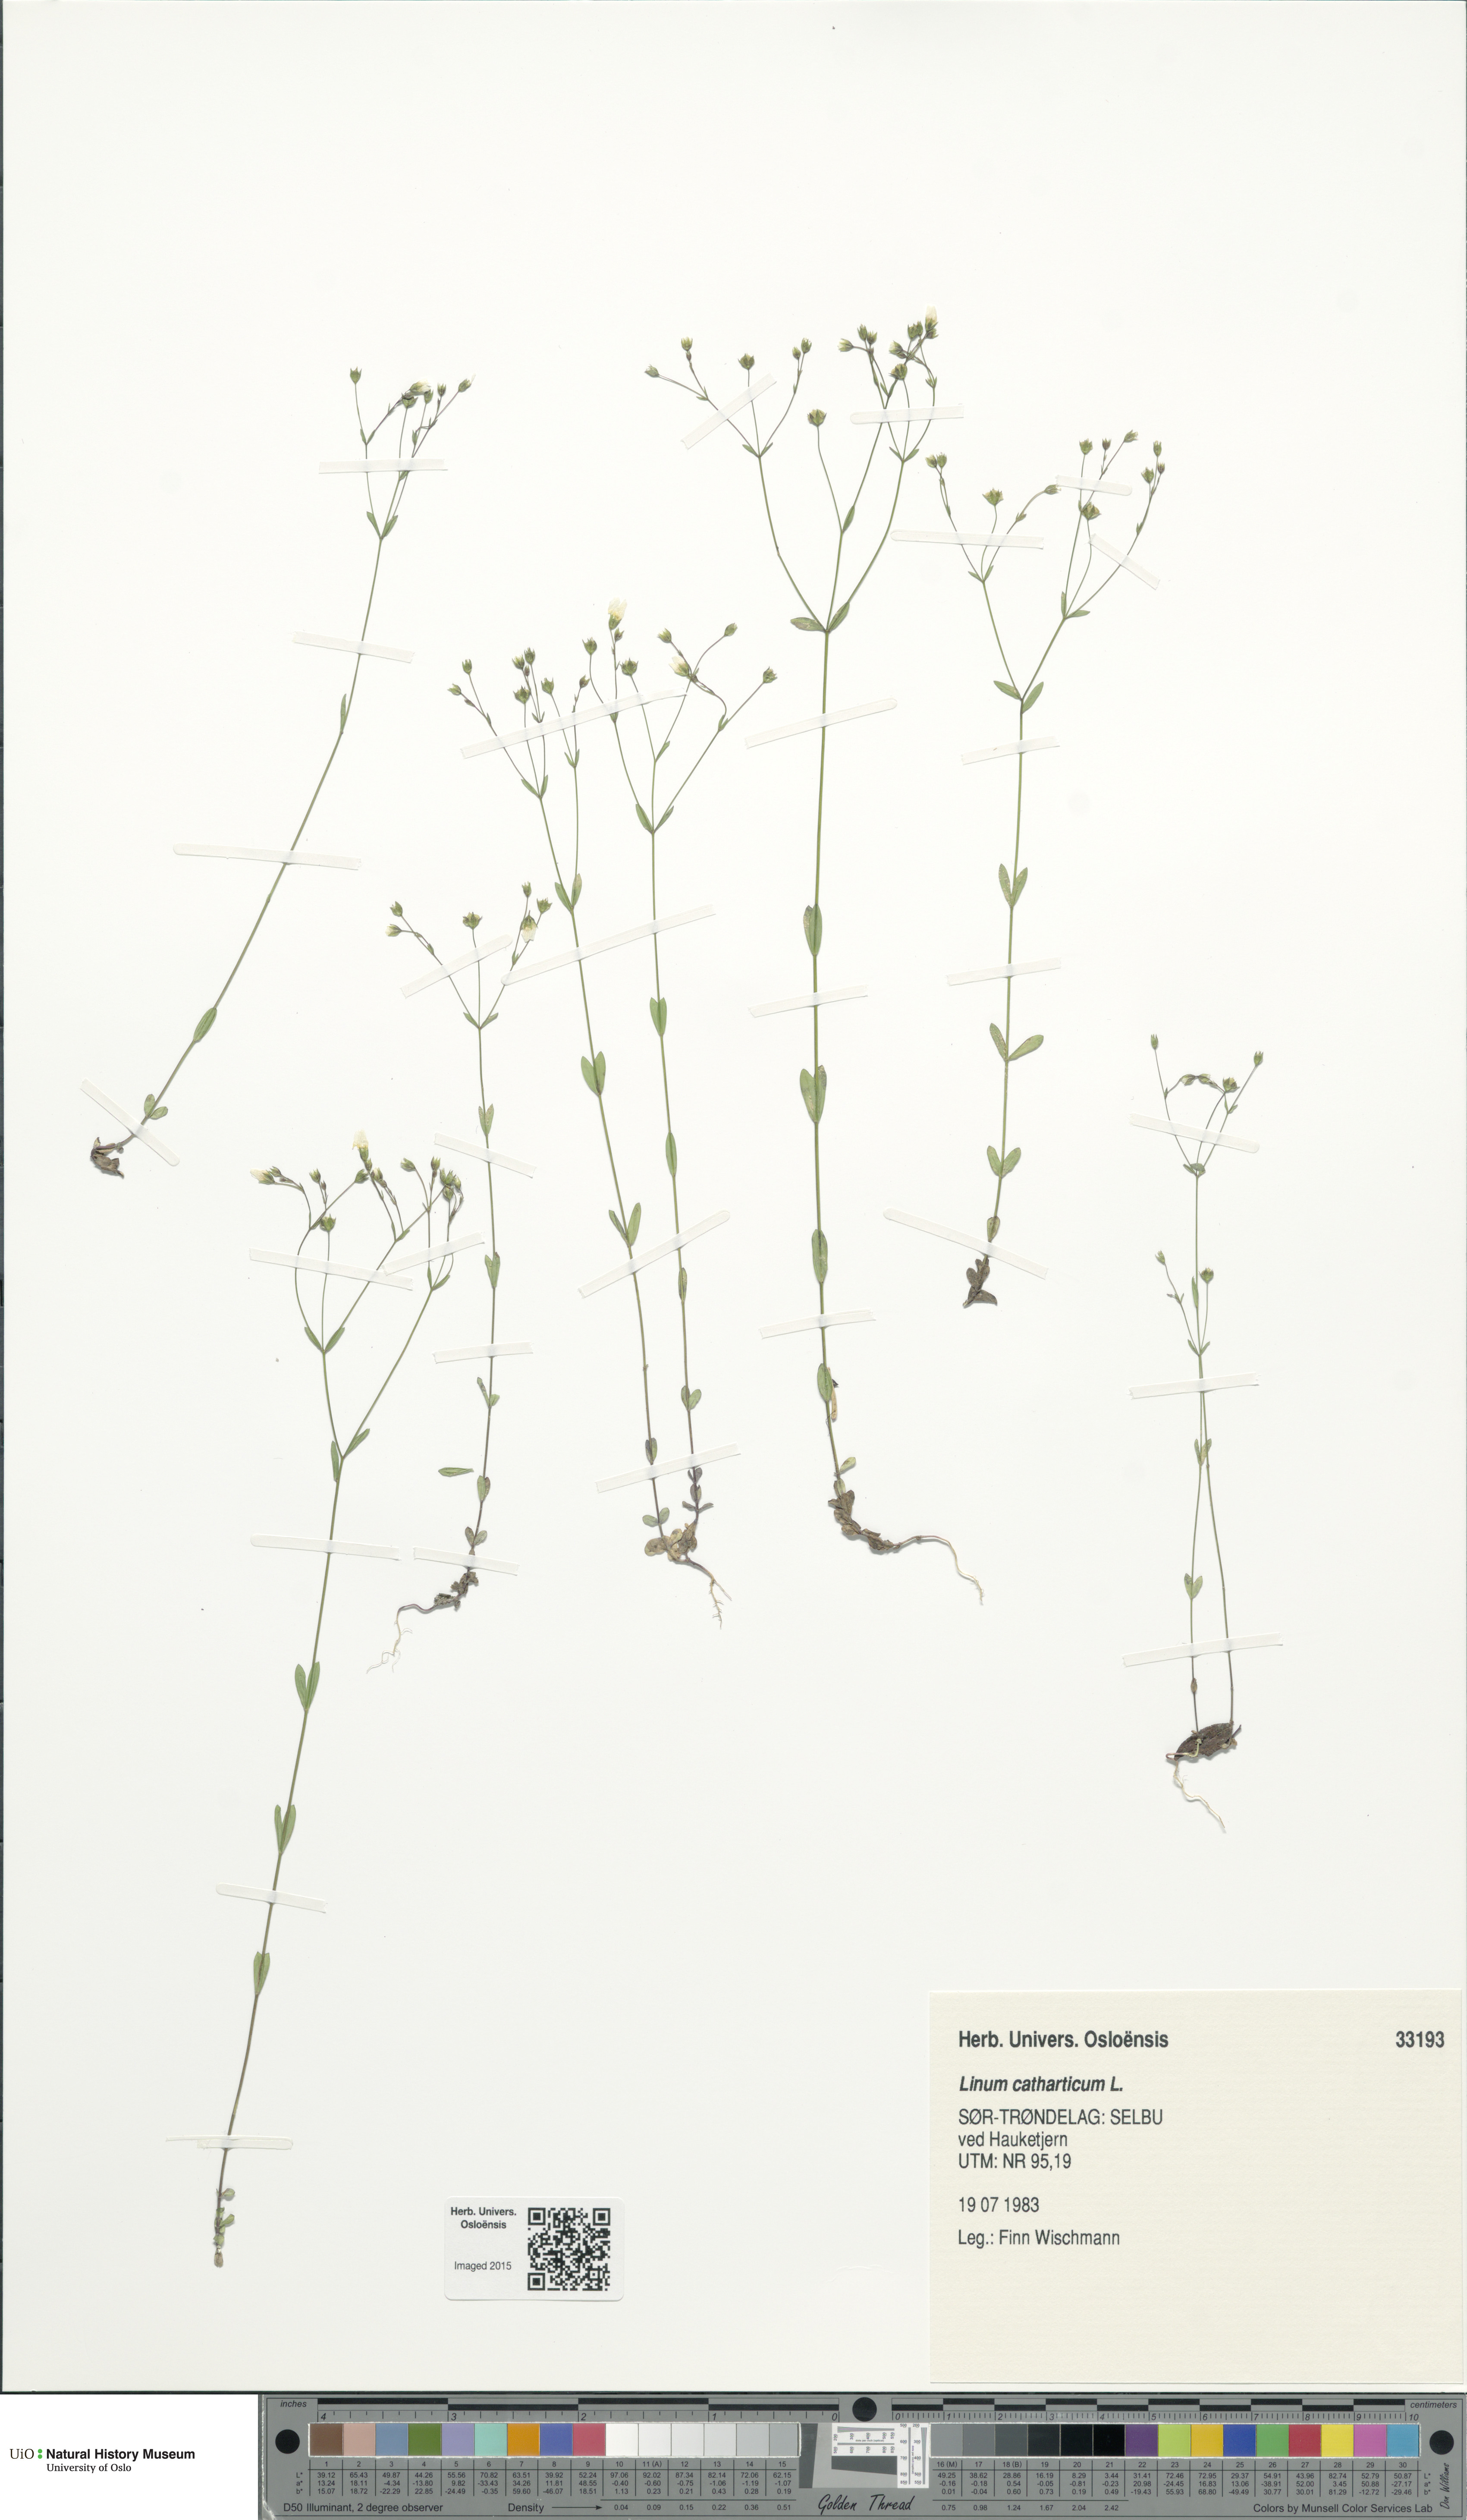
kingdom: Plantae
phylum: Tracheophyta
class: Magnoliopsida
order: Malpighiales
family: Linaceae
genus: Linum
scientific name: Linum catharticum
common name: Fairy flax
